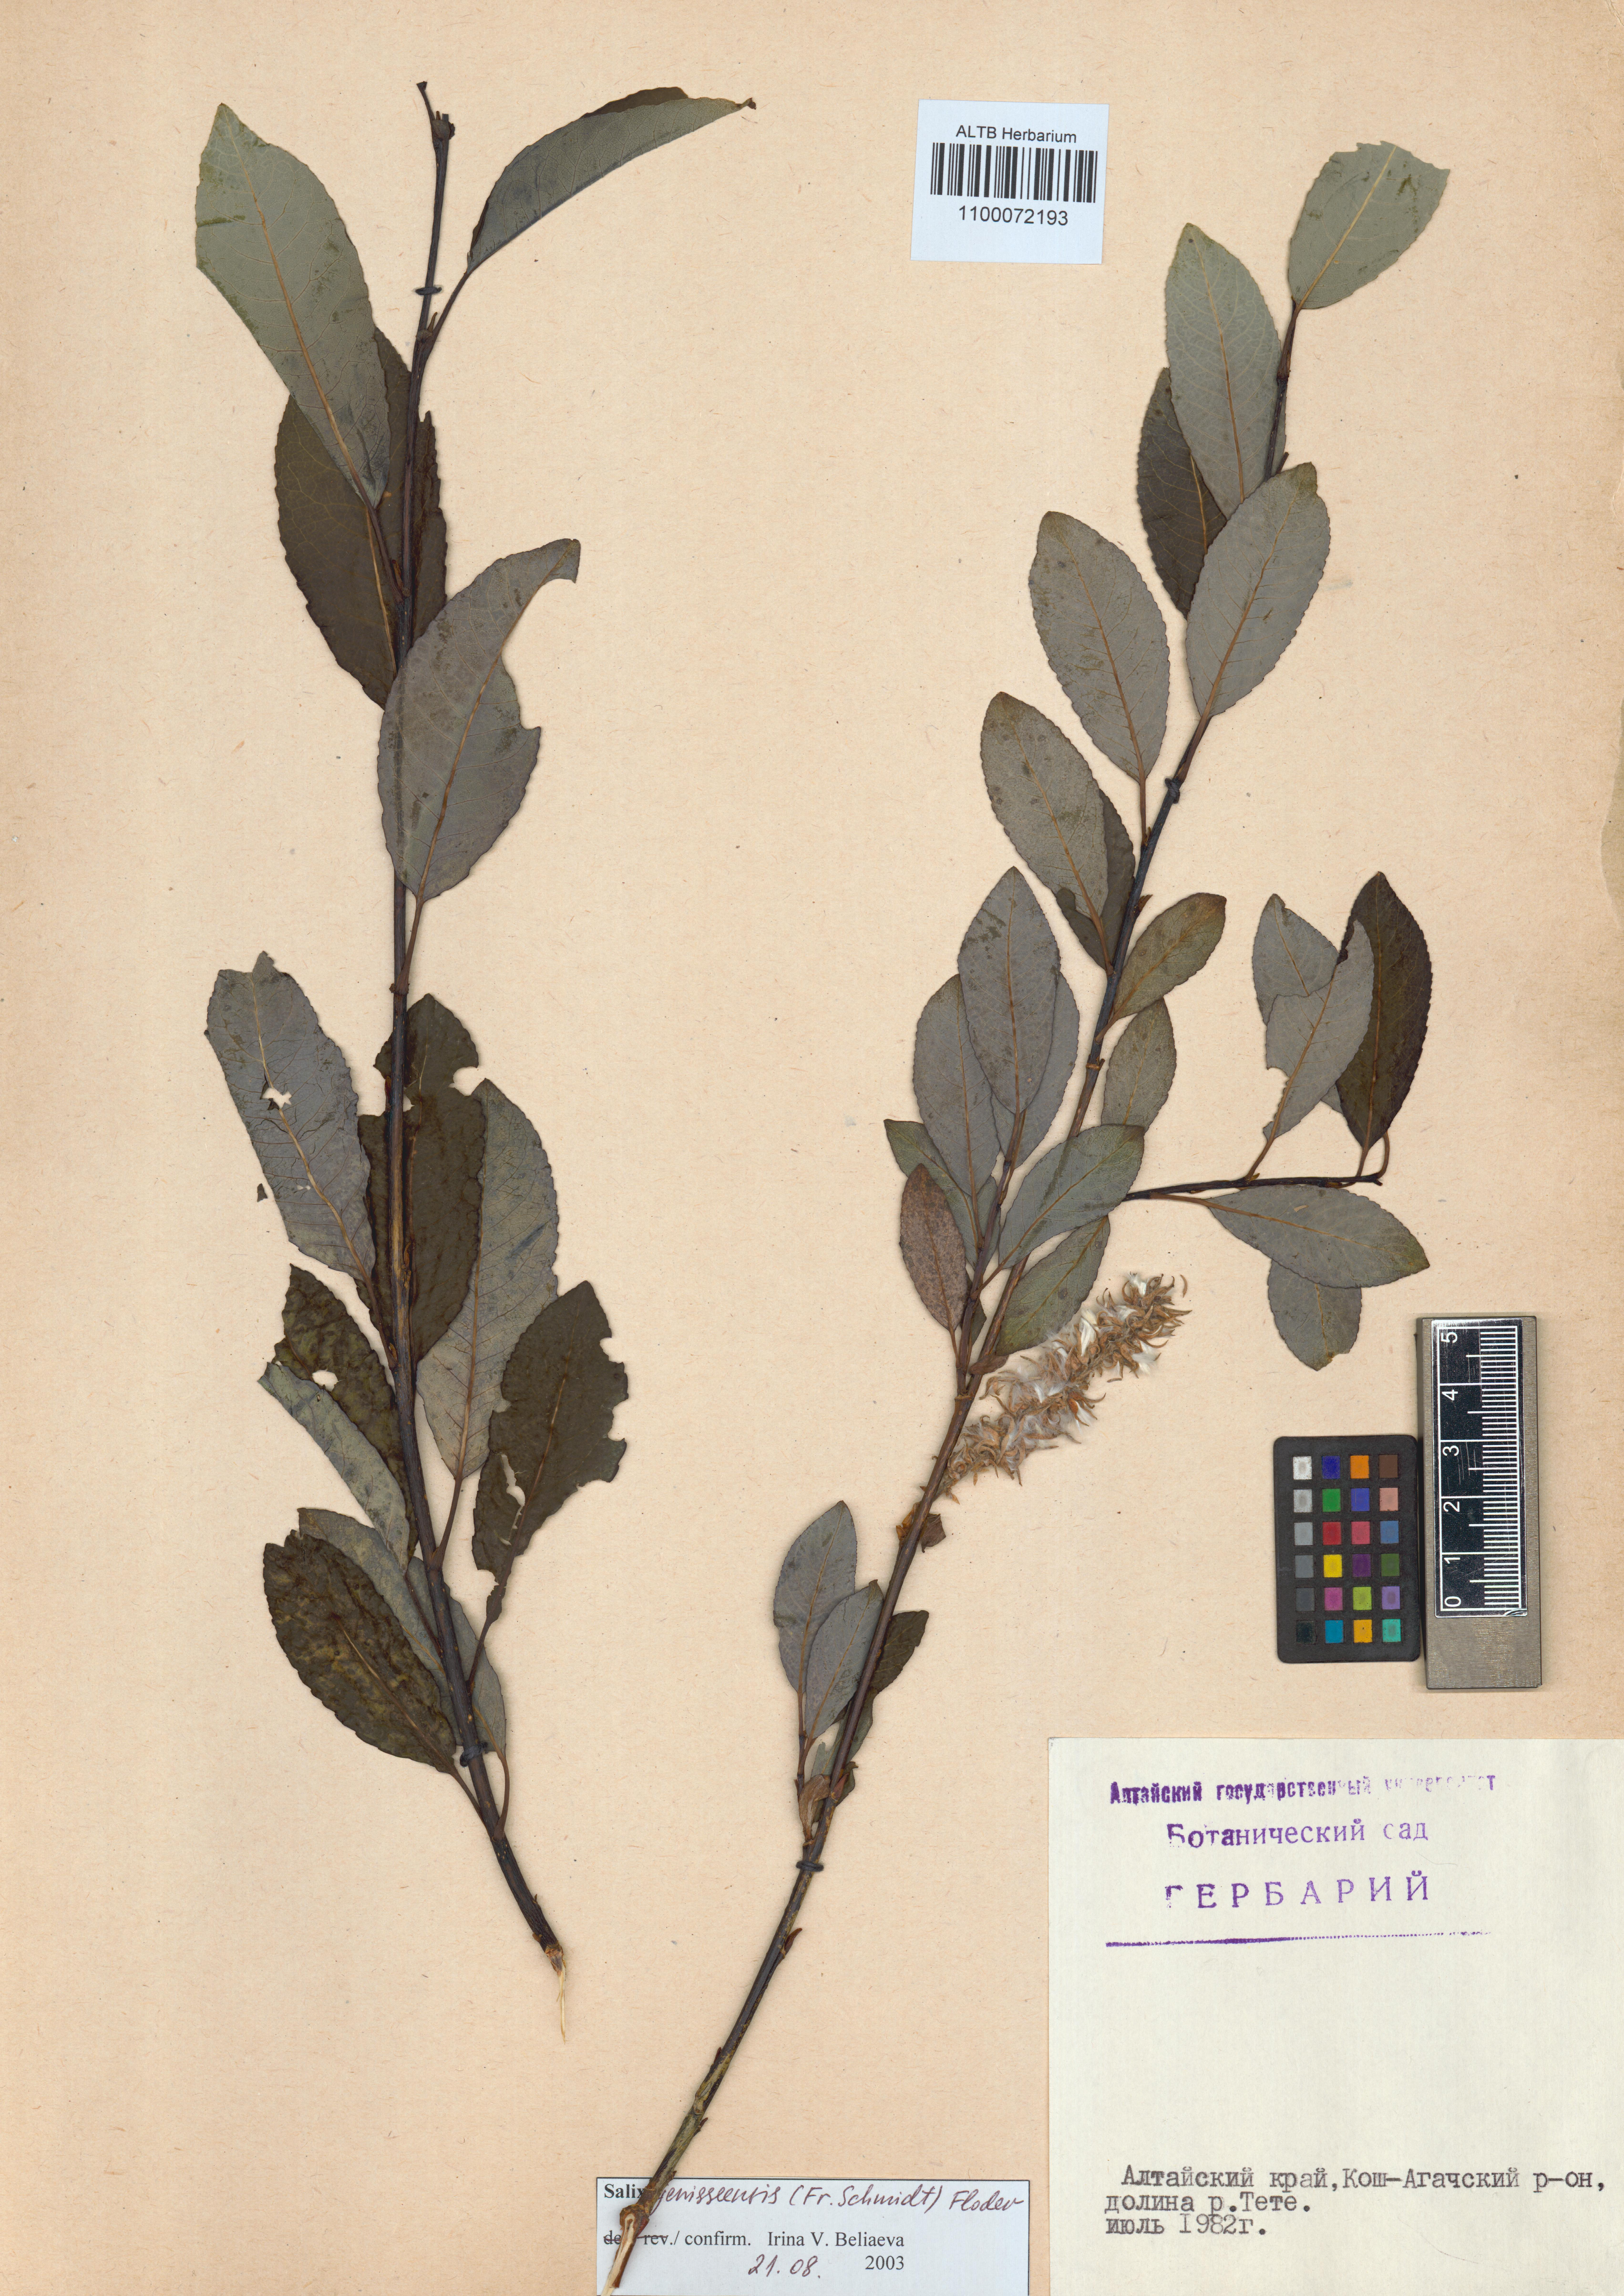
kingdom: Plantae
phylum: Tracheophyta
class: Magnoliopsida
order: Malpighiales
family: Salicaceae
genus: Salix
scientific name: Salix jenisseensis
